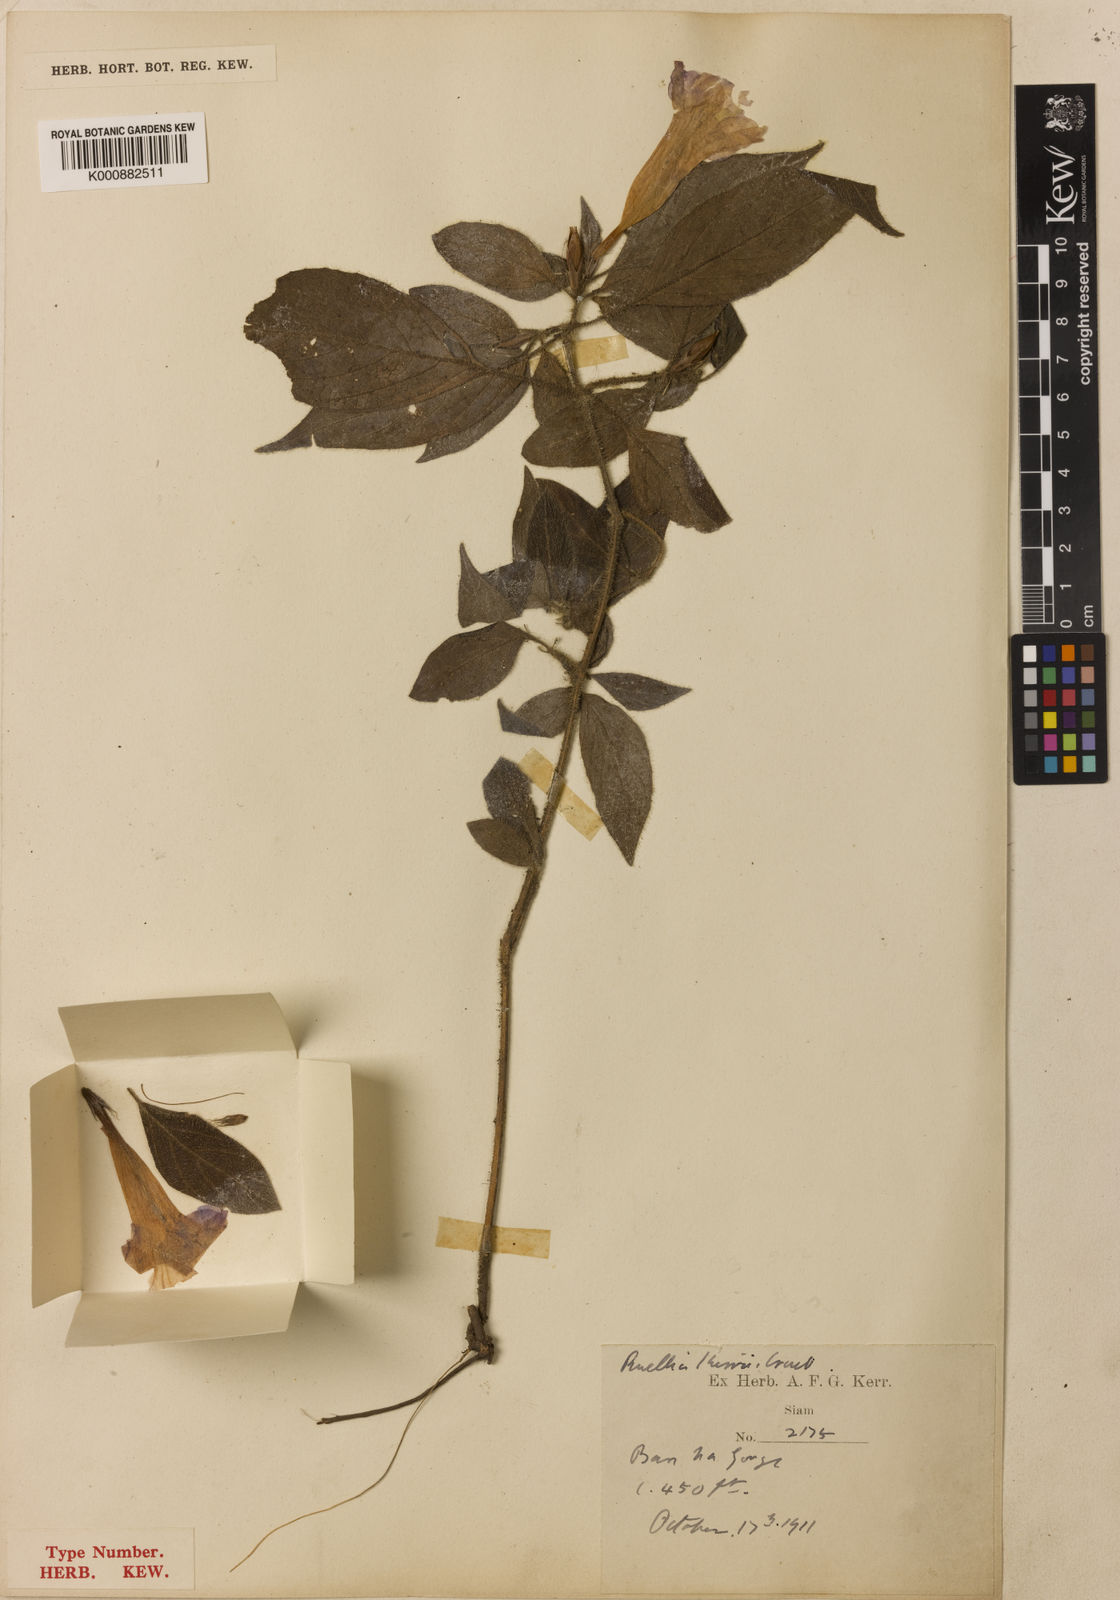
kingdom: Plantae
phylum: Tracheophyta
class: Magnoliopsida
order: Lamiales
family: Acanthaceae
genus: Ruellia
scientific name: Ruellia kerrii
